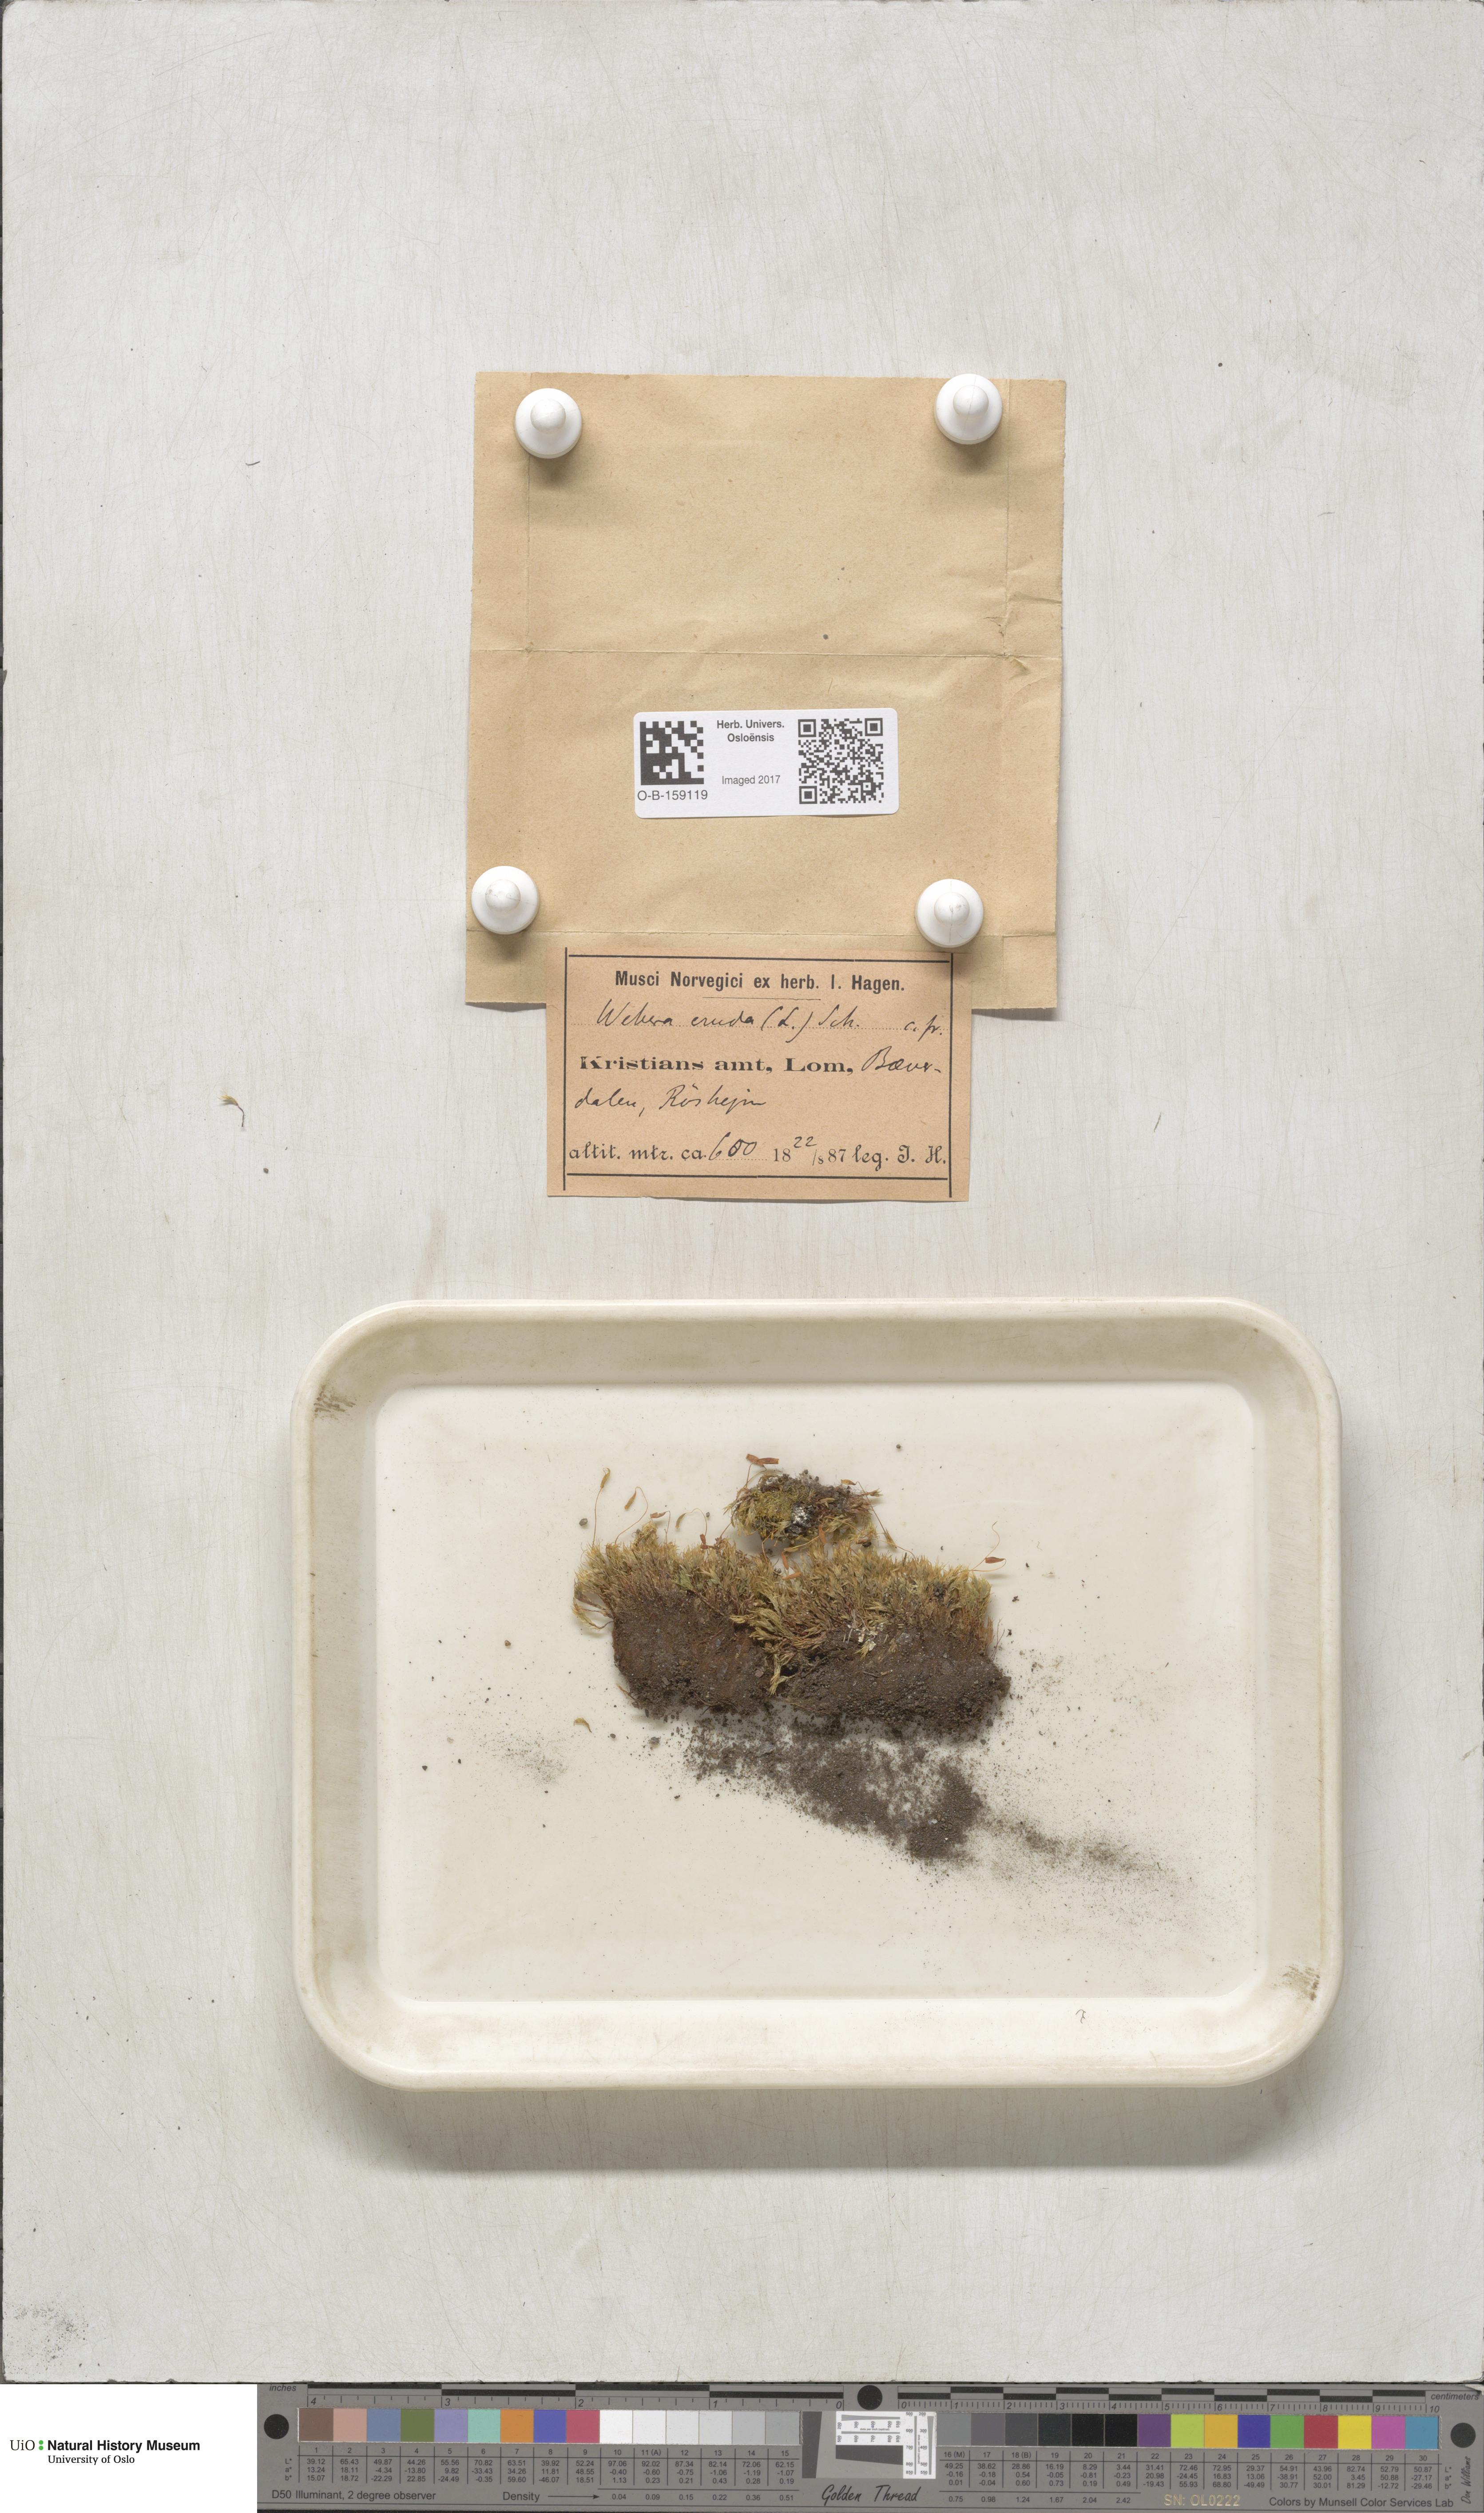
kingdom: Plantae
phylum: Bryophyta
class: Bryopsida
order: Bryales
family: Mniaceae
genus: Pohlia
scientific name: Pohlia cruda
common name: Opal nodding moss
